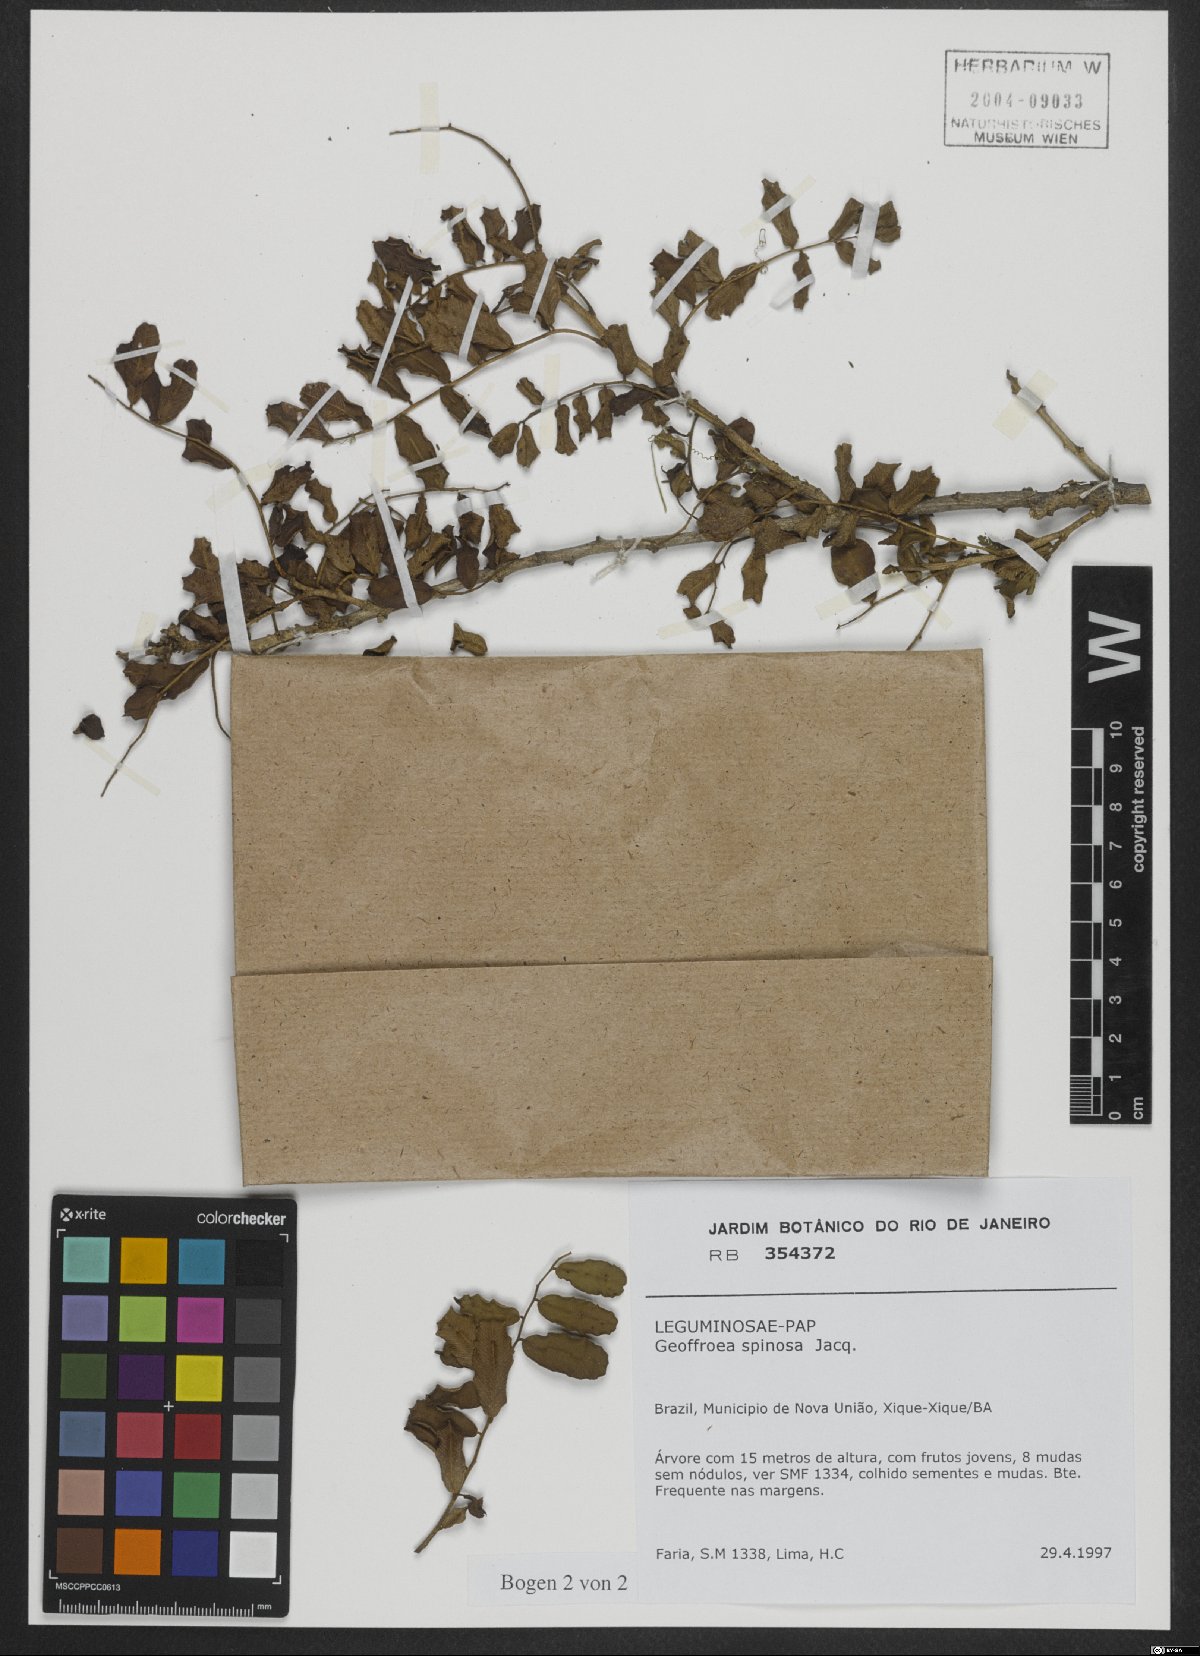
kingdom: Plantae
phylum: Tracheophyta
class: Magnoliopsida
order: Fabales
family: Fabaceae
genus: Geoffroea
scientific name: Geoffroea spinosa
